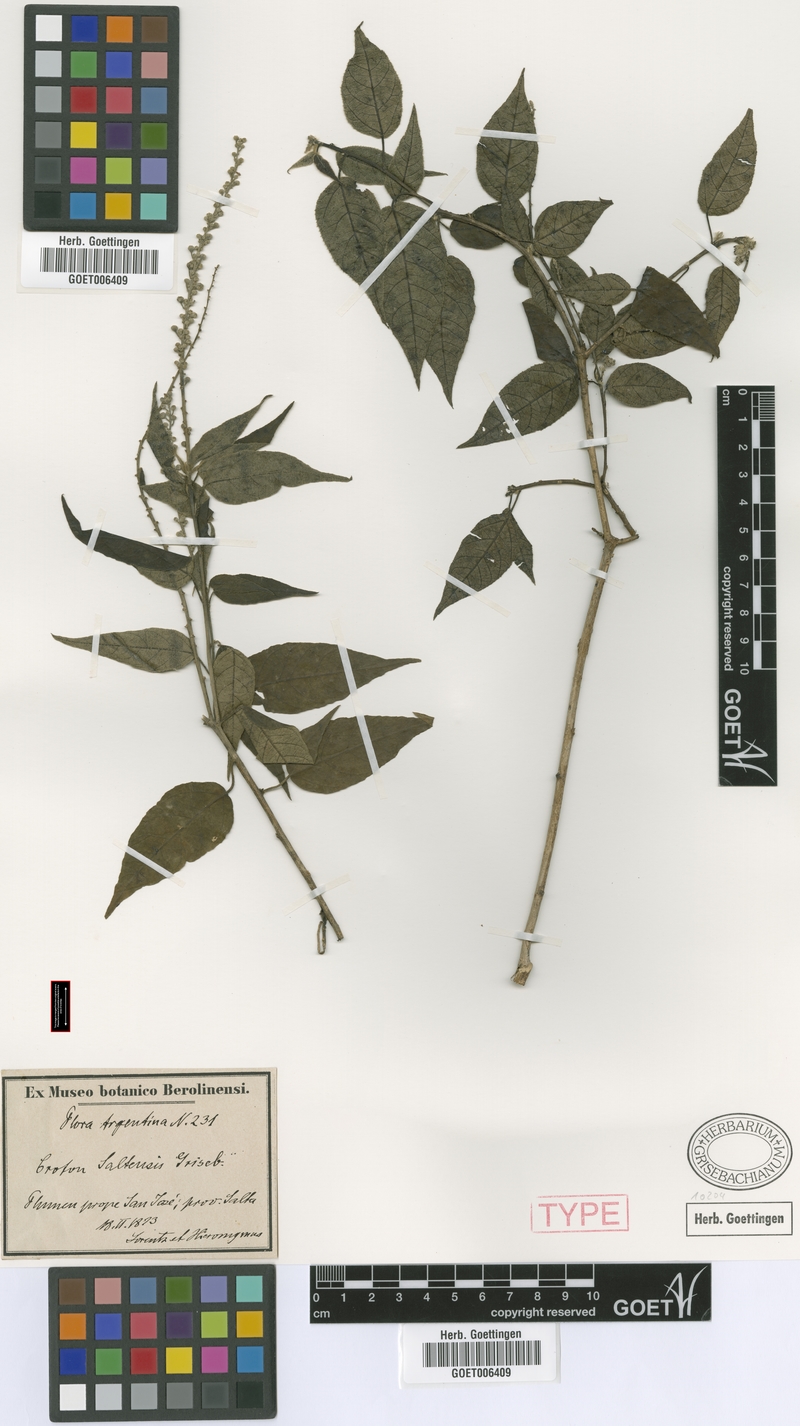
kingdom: Plantae
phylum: Tracheophyta
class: Magnoliopsida
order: Malpighiales
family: Euphorbiaceae
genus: Croton
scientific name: Croton saltensis
